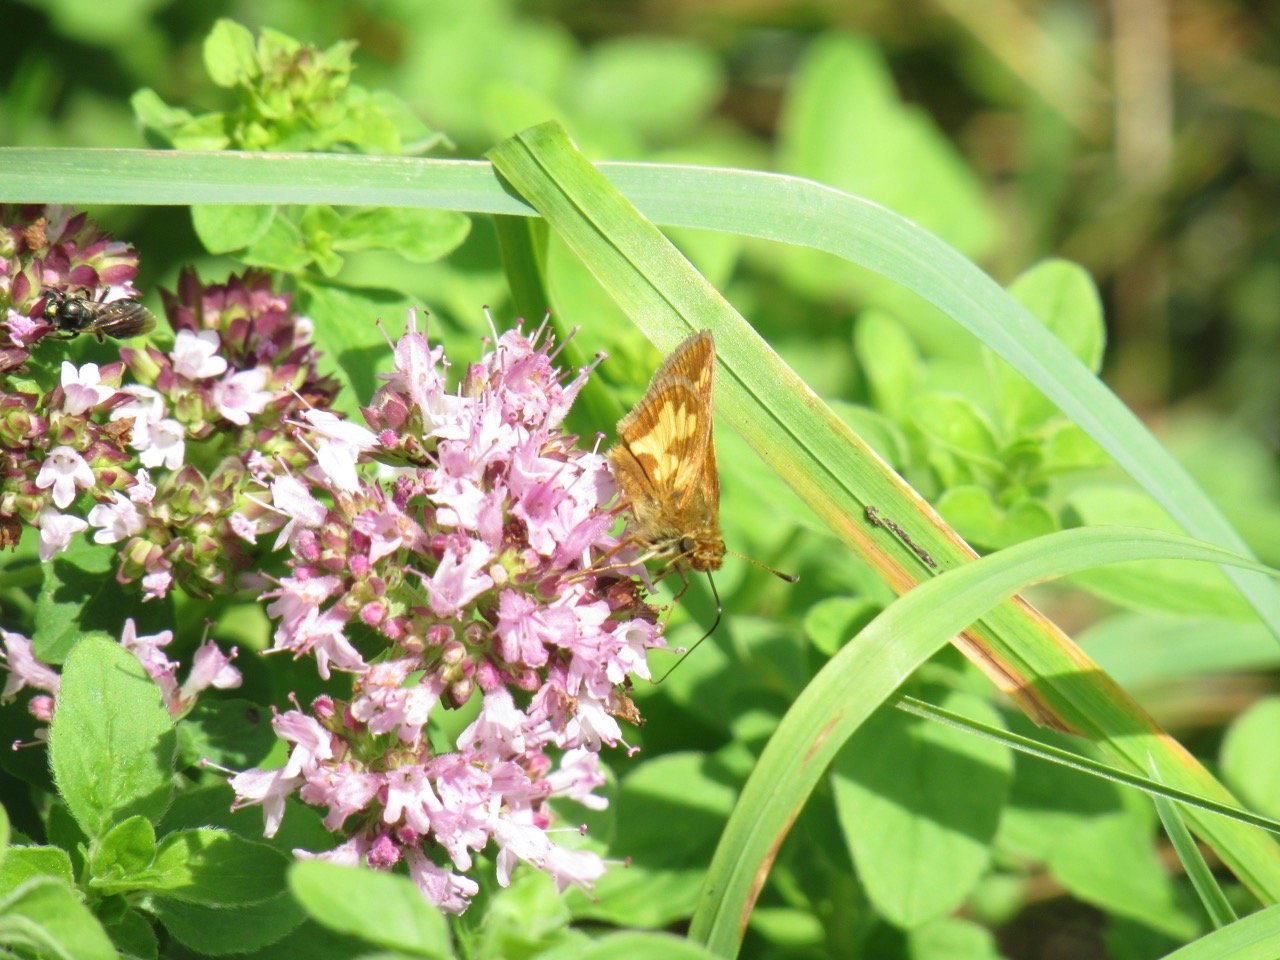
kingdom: Animalia
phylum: Arthropoda
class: Insecta
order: Lepidoptera
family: Hesperiidae
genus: Polites
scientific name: Polites coras
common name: Peck's Skipper
